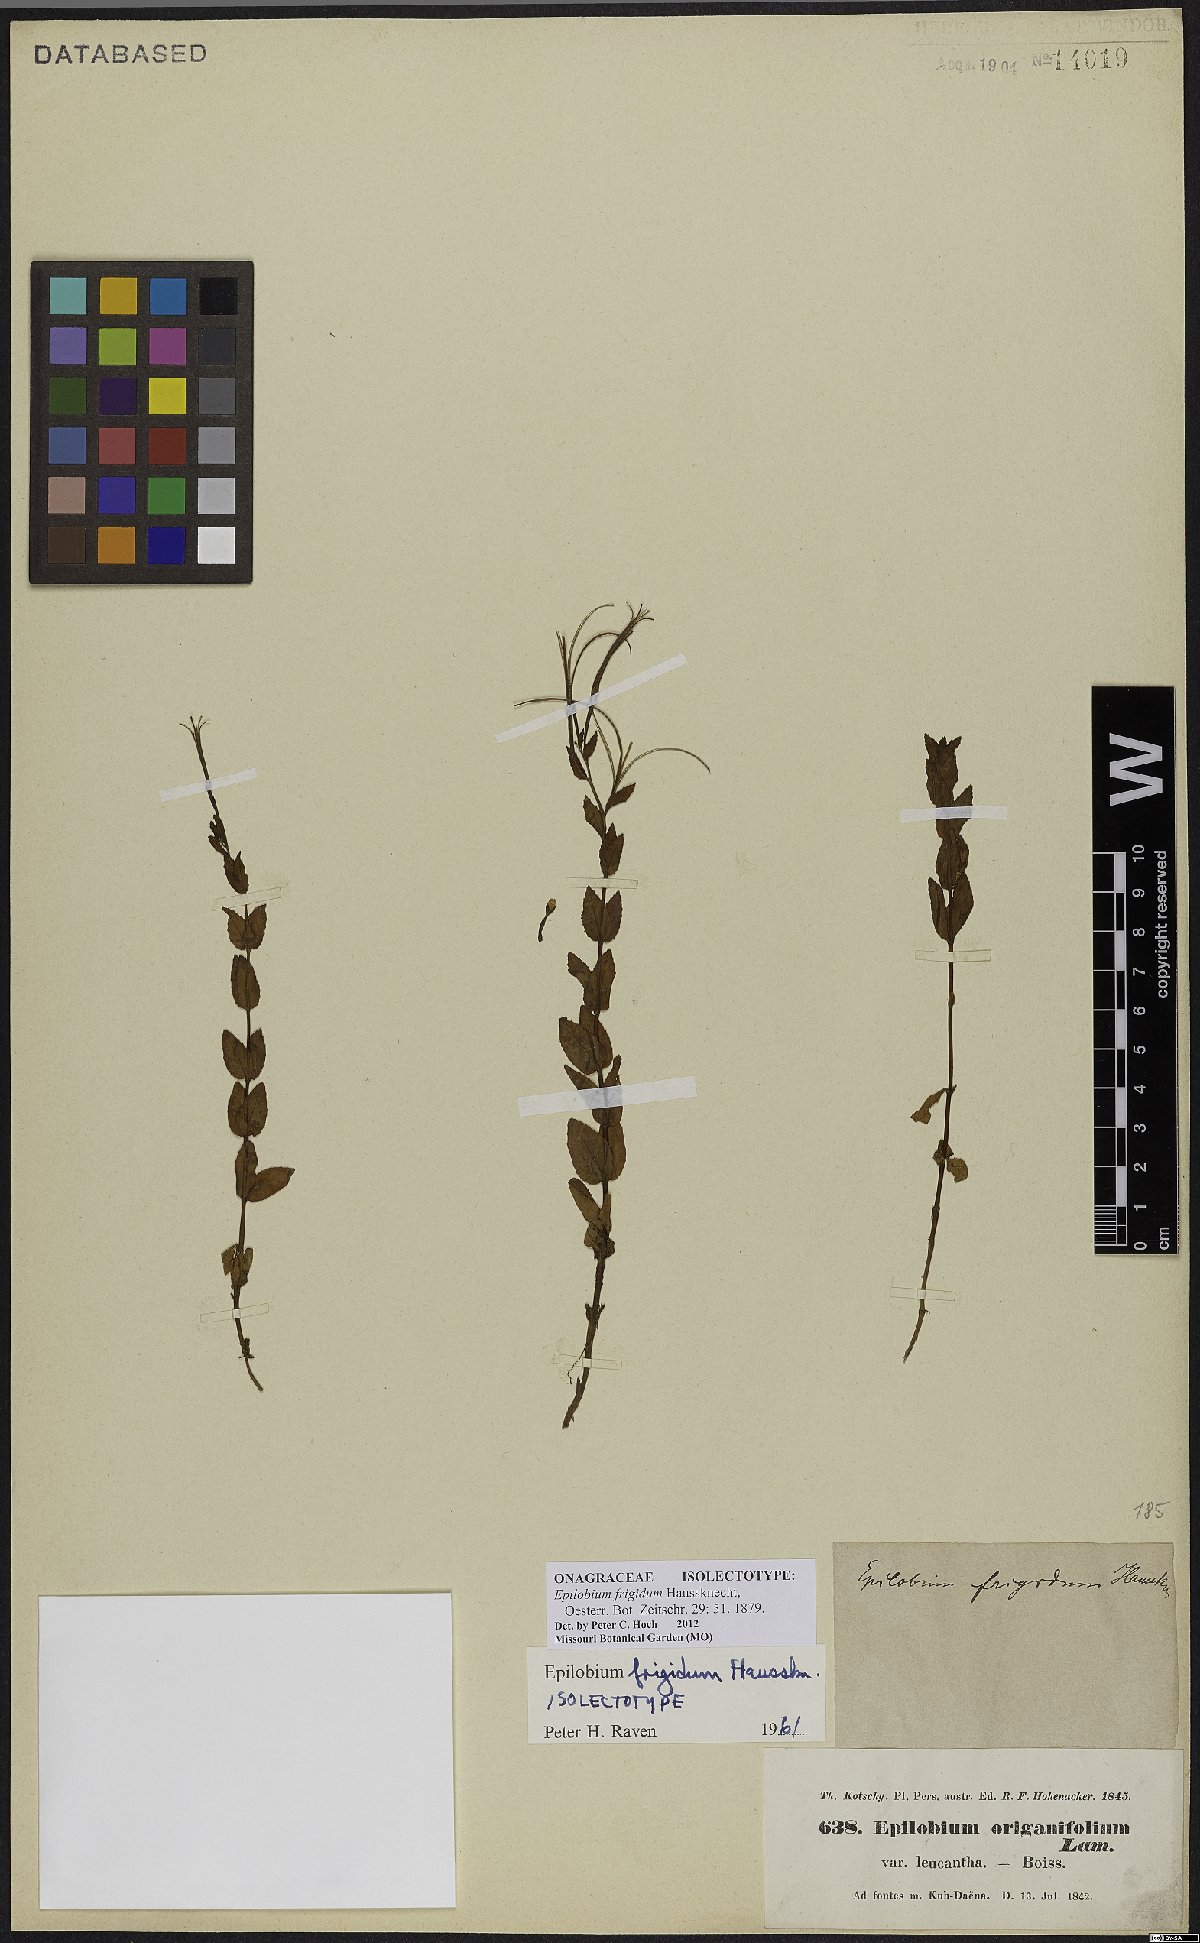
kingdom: Plantae
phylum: Tracheophyta
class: Magnoliopsida
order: Myrtales
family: Onagraceae
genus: Epilobium
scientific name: Epilobium ponticum
